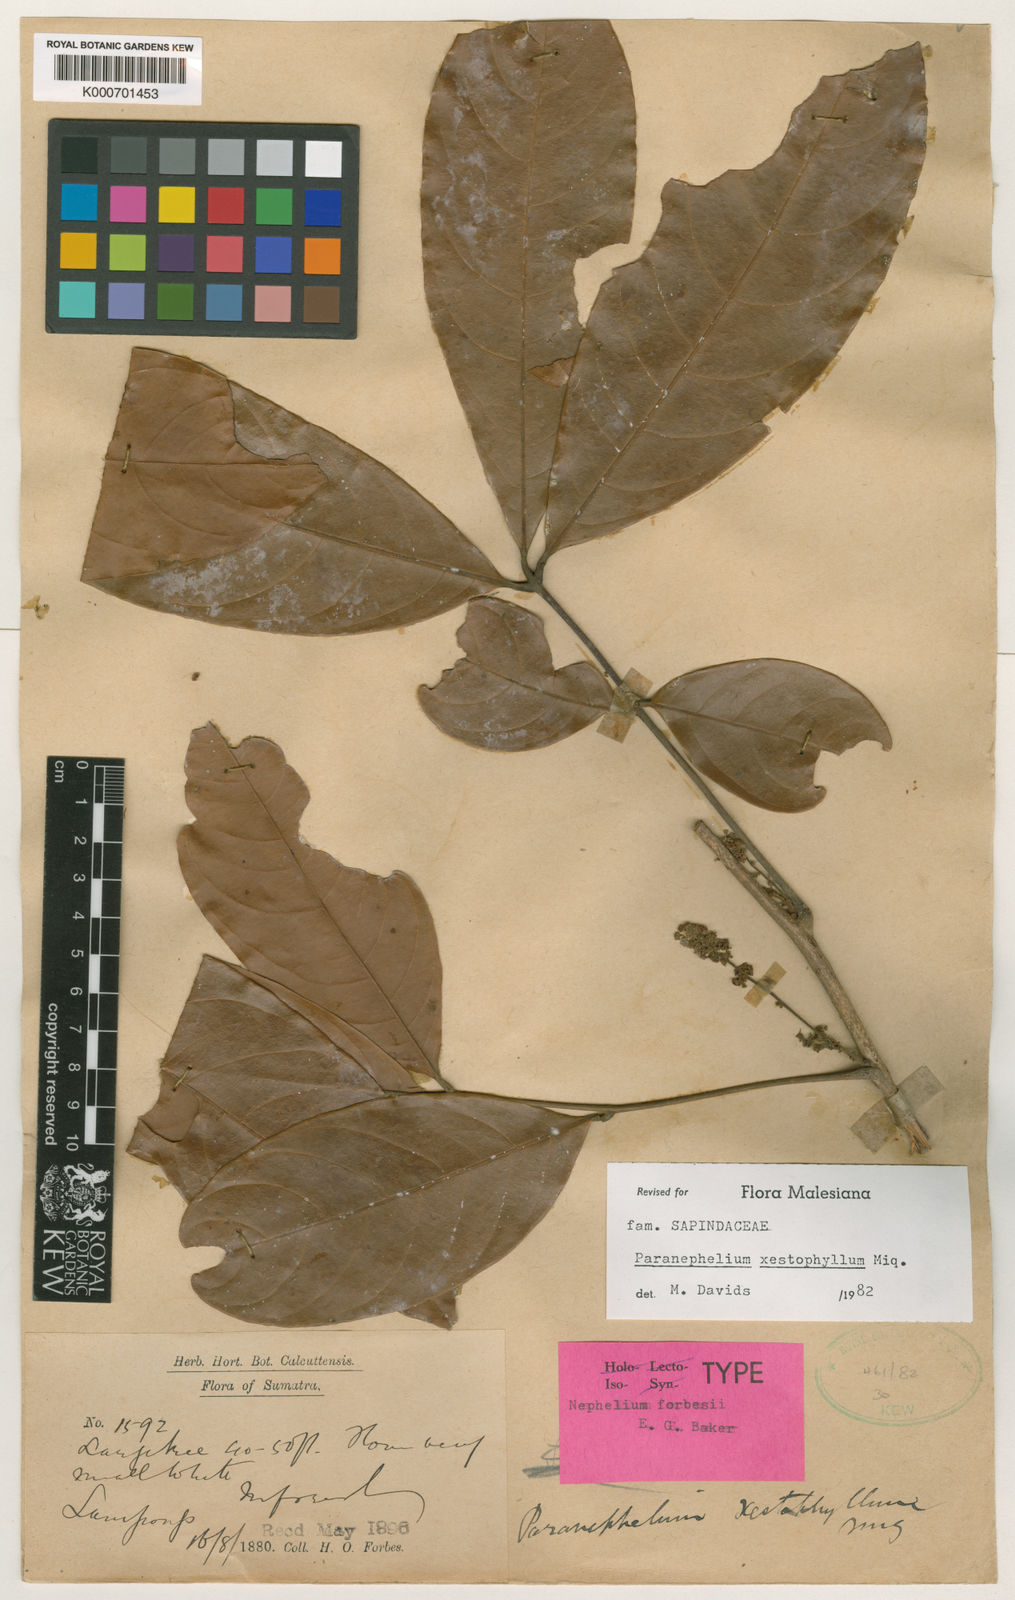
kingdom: Plantae
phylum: Tracheophyta
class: Magnoliopsida
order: Sapindales
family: Sapindaceae
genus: Paranephelium
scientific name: Paranephelium xestophyllum
